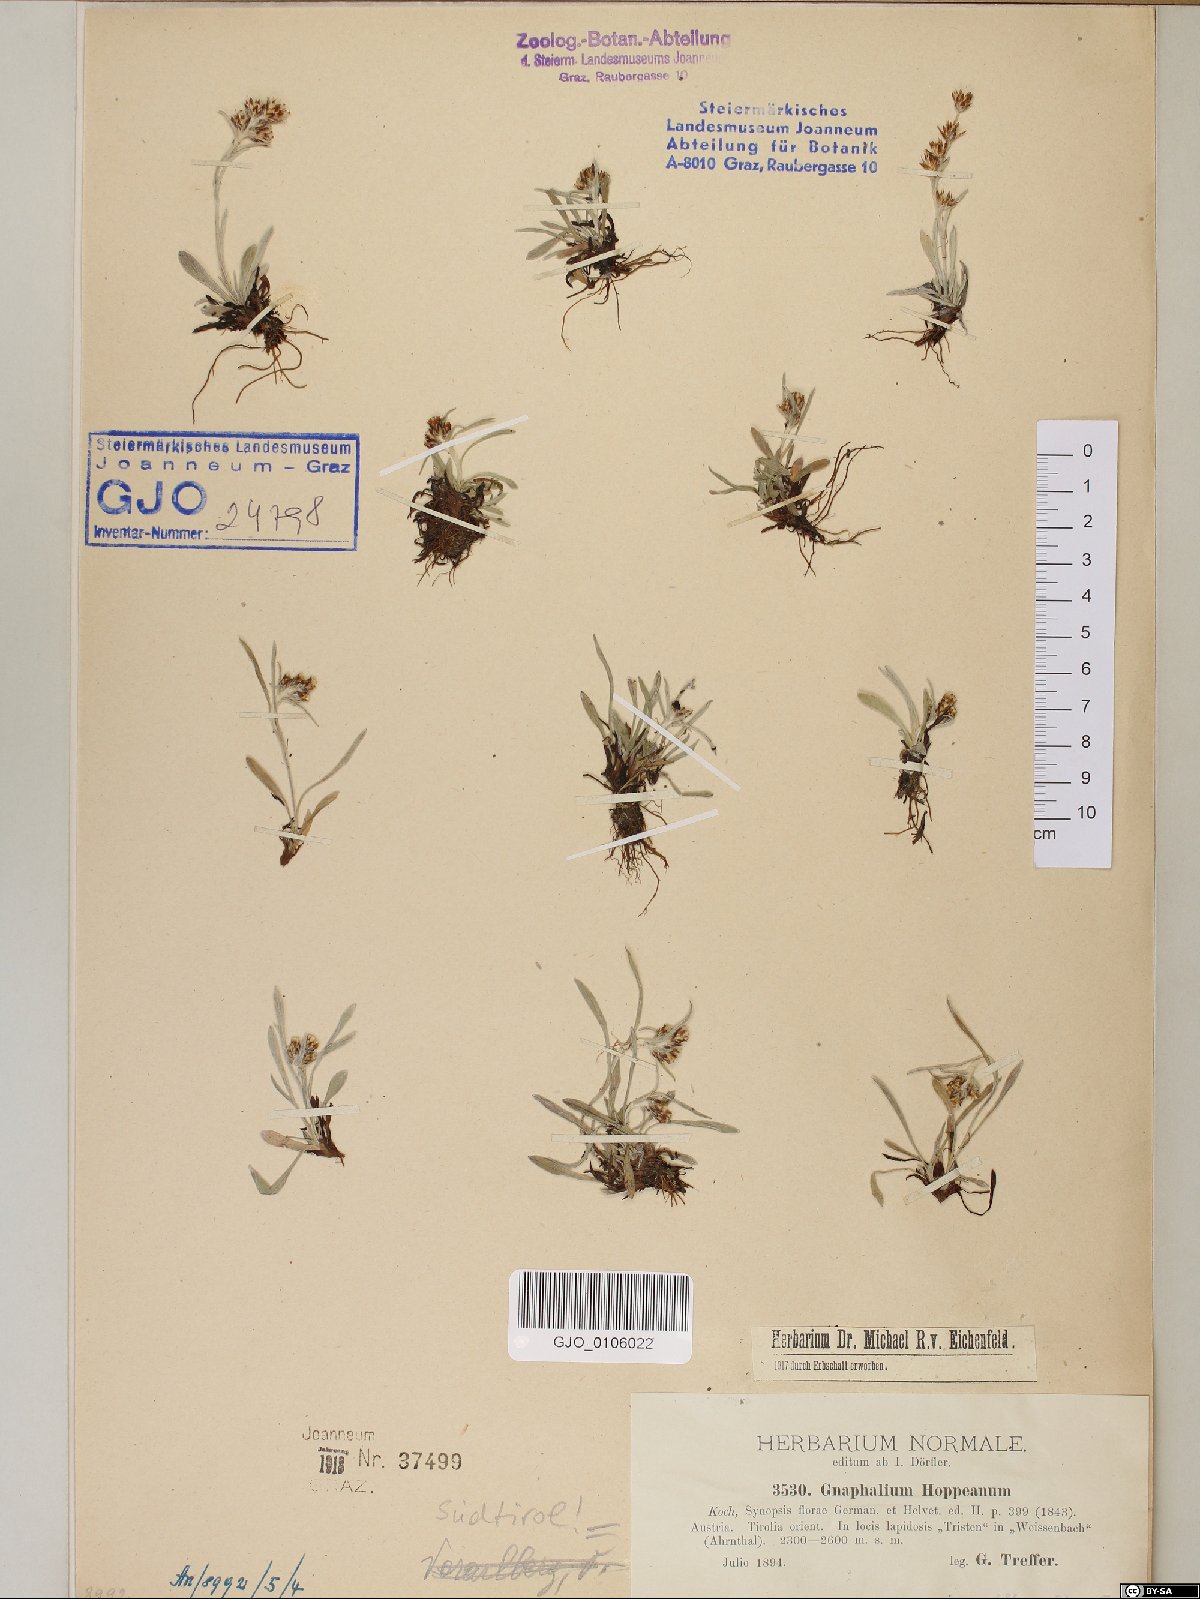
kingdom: Plantae
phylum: Tracheophyta
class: Magnoliopsida
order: Asterales
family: Asteraceae
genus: Omalotheca
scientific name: Omalotheca hoppeana
